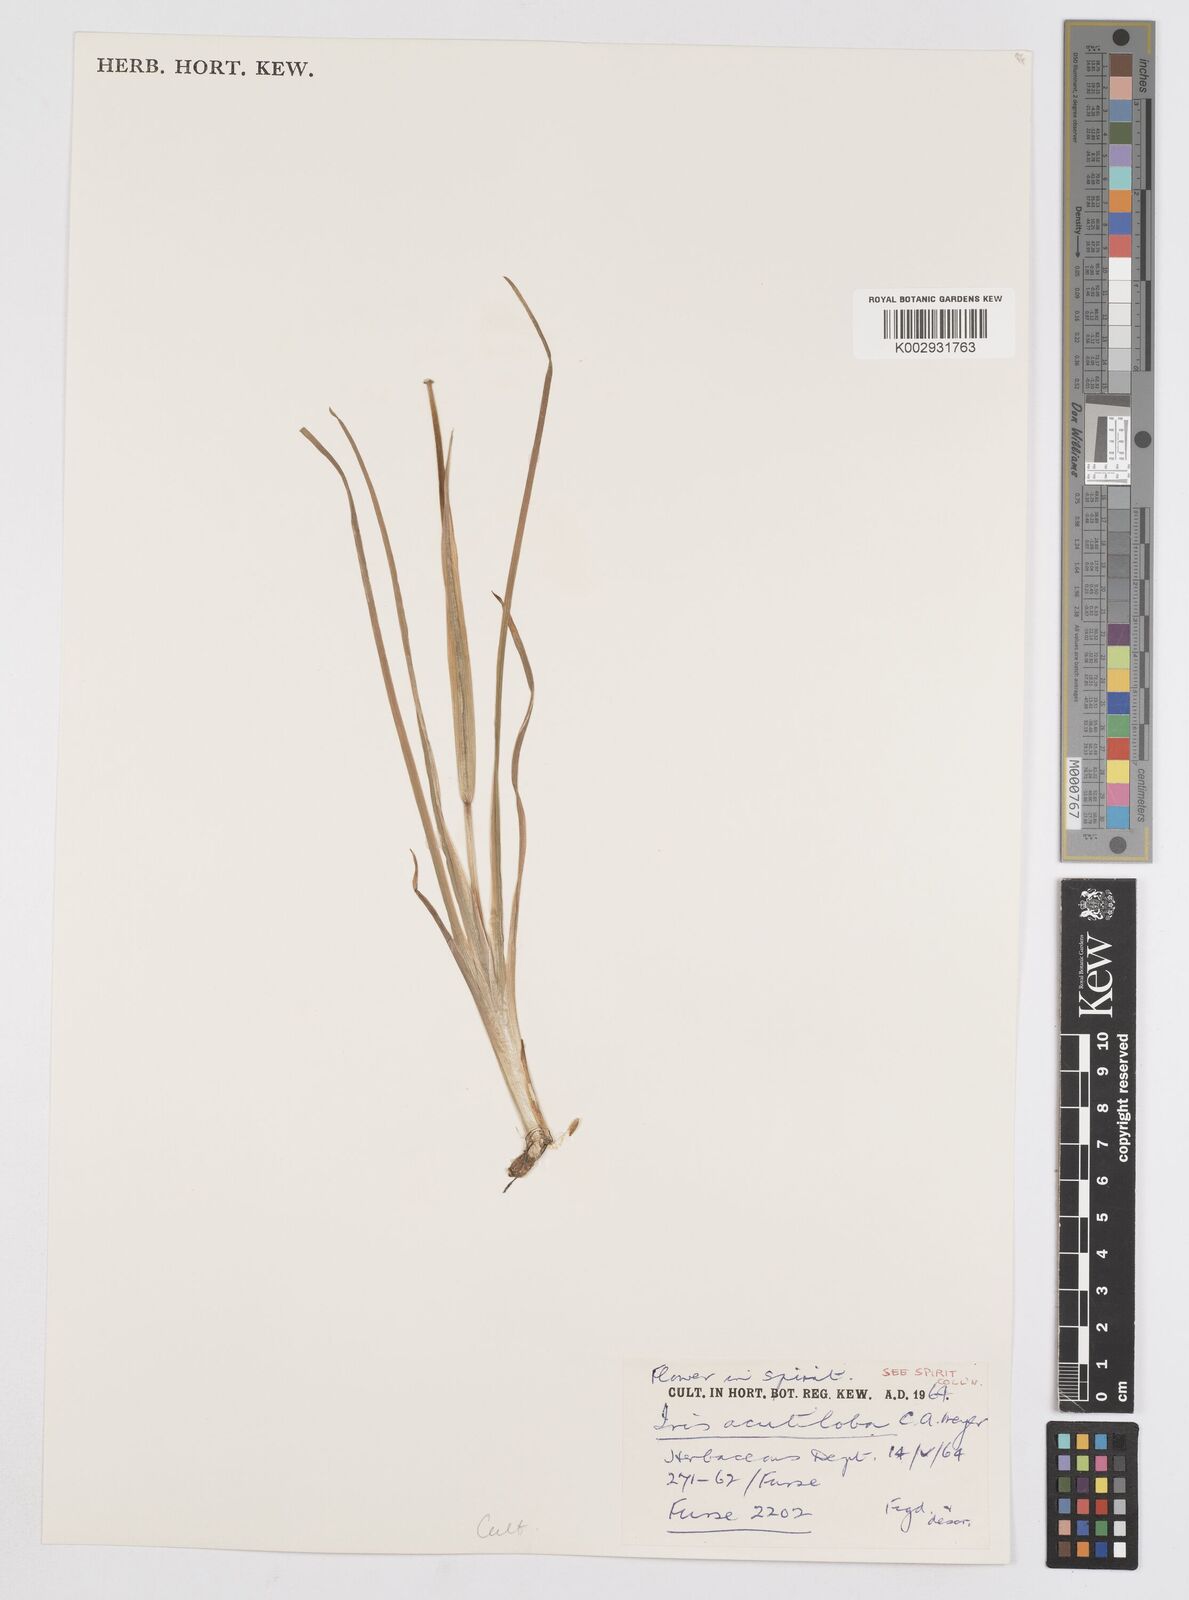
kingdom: Plantae
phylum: Tracheophyta
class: Liliopsida
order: Asparagales
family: Iridaceae
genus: Iris
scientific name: Iris acutiloba
